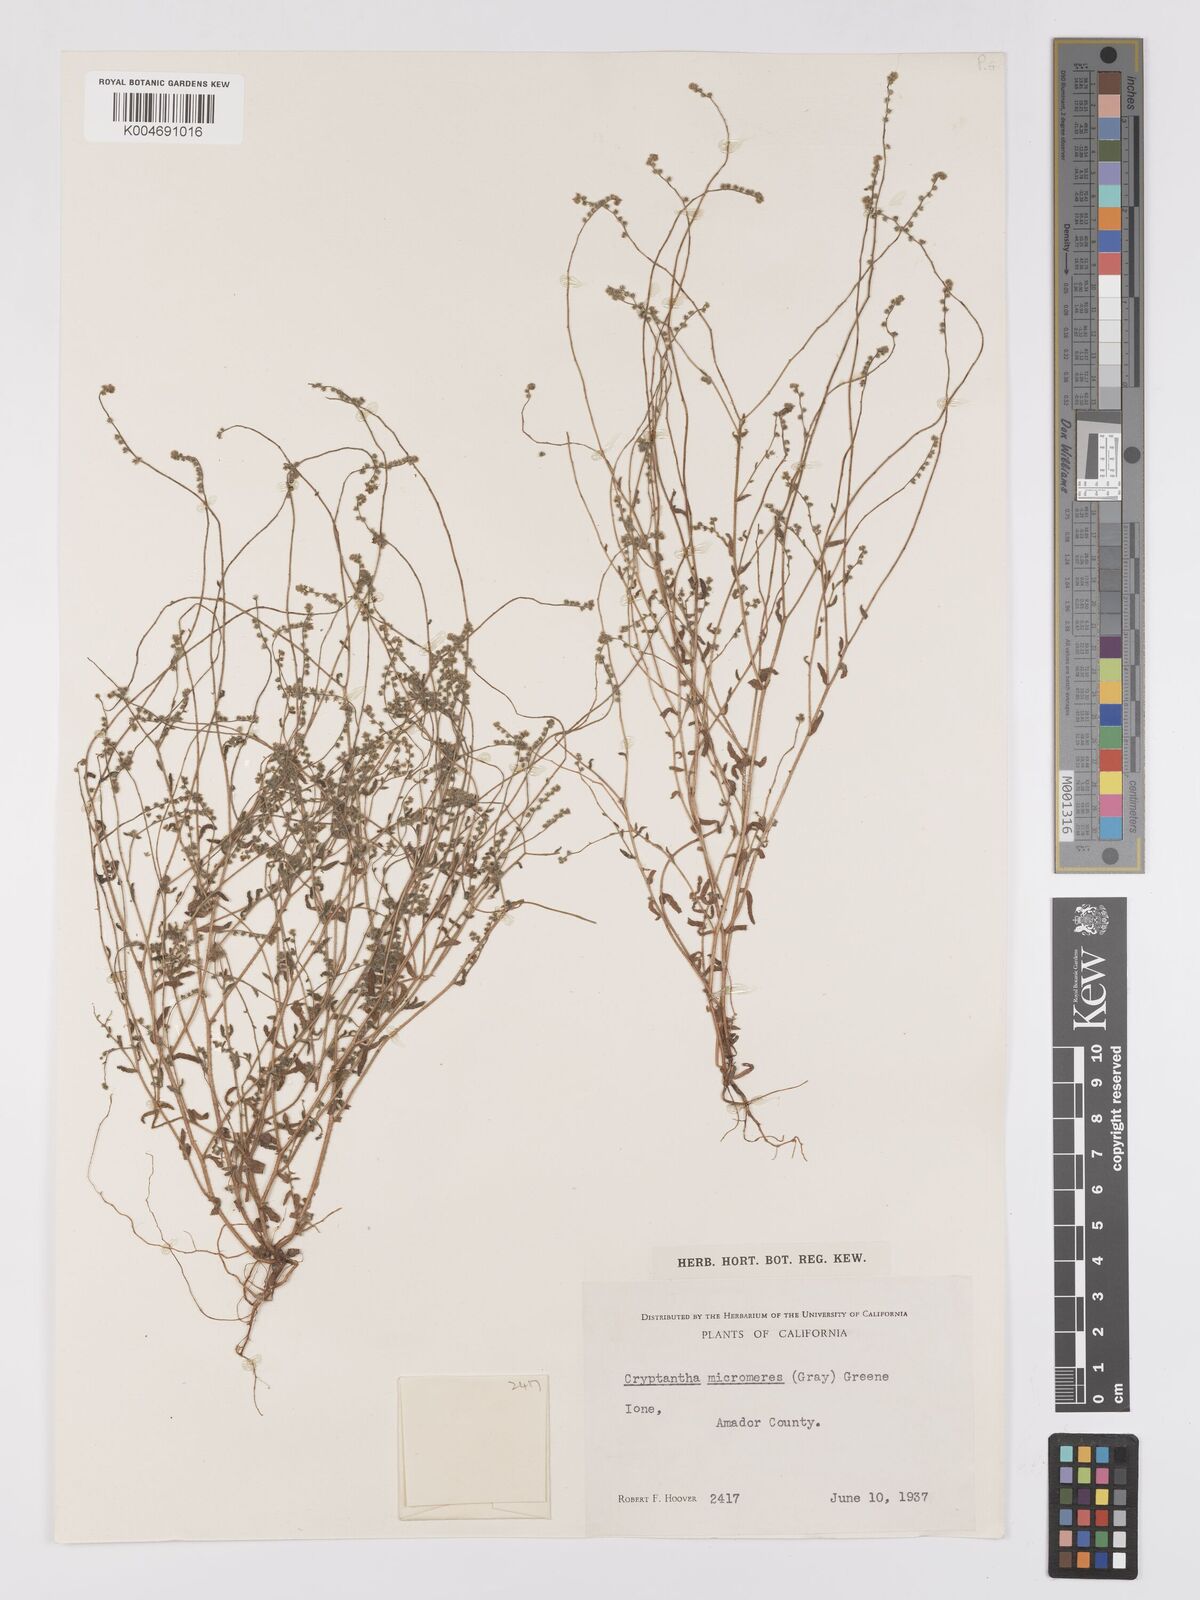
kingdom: Plantae
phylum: Tracheophyta
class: Magnoliopsida
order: Boraginales
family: Boraginaceae
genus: Johnstonella
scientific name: Johnstonella micromeres
